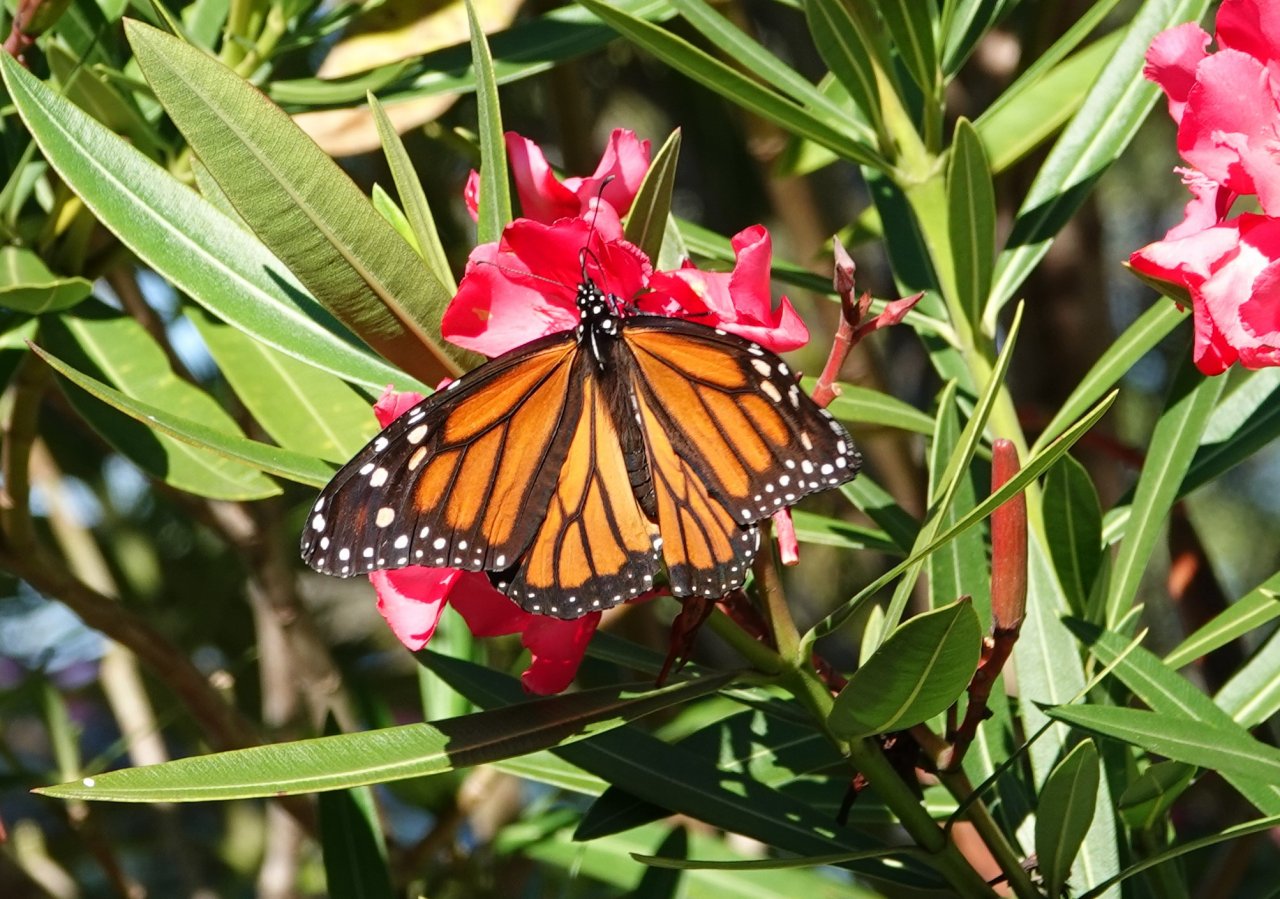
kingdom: Animalia
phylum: Arthropoda
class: Insecta
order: Lepidoptera
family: Nymphalidae
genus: Danaus
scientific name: Danaus plexippus
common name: Monarch
